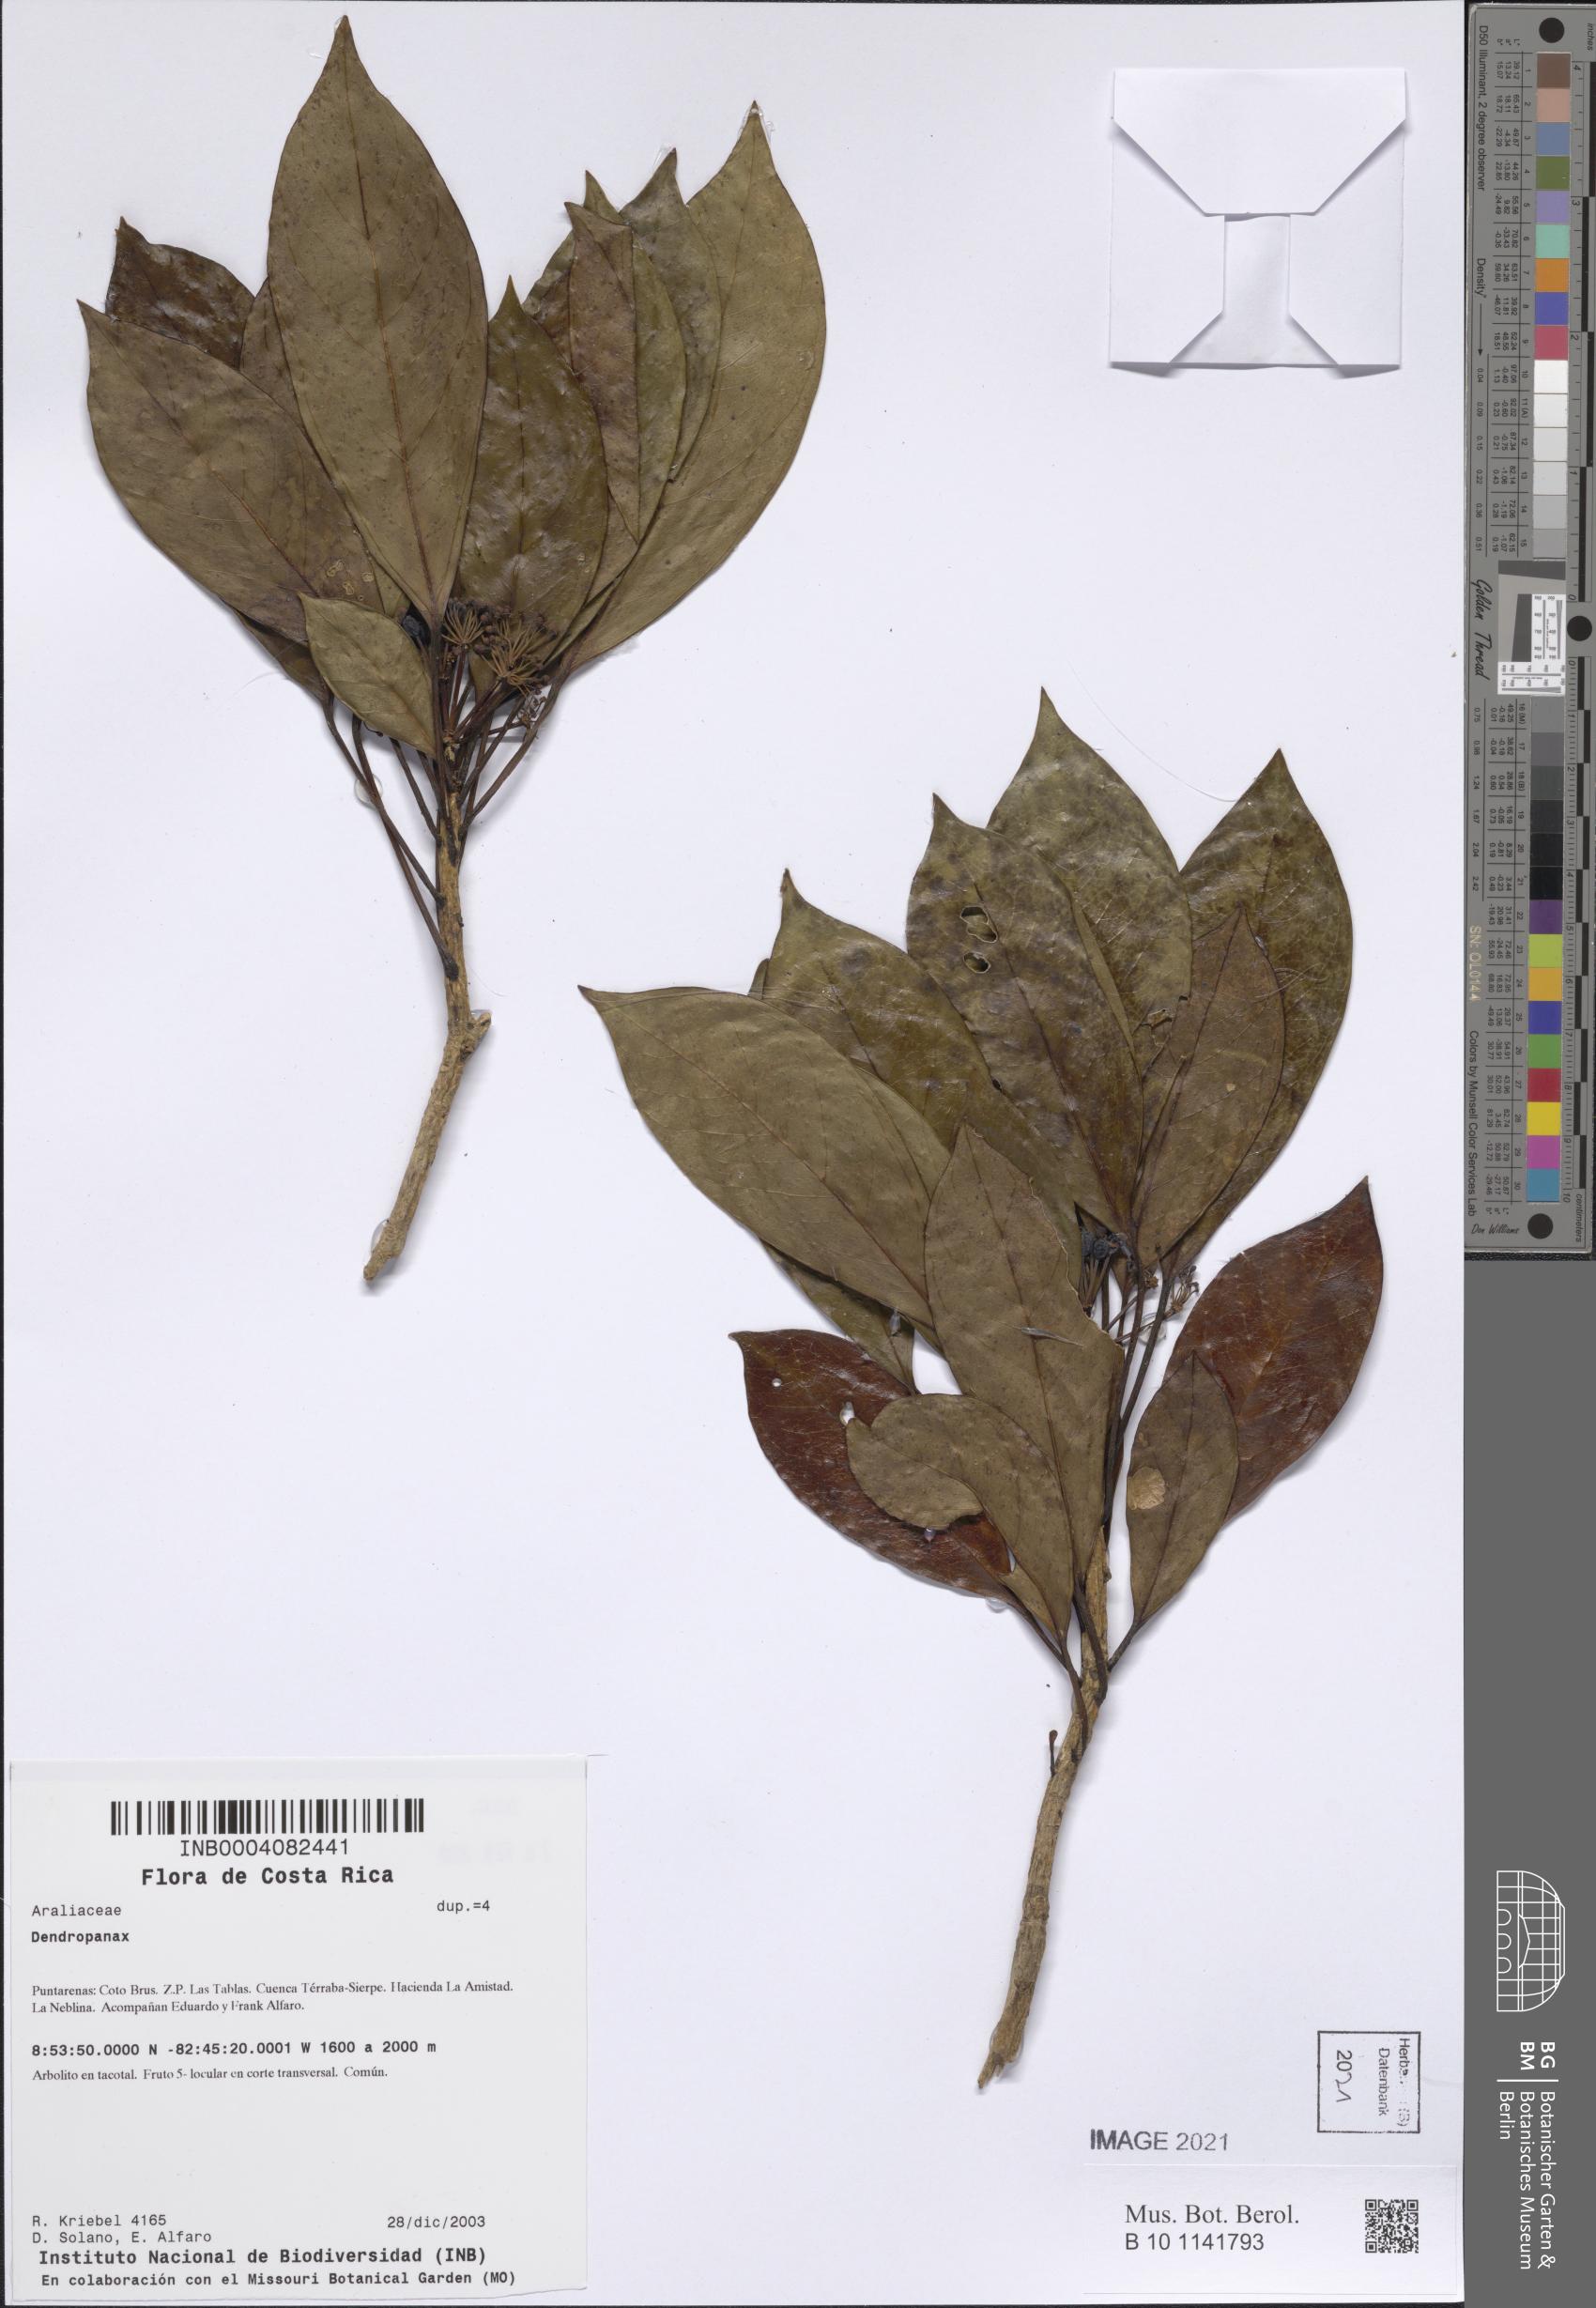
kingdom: Plantae
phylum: Tracheophyta
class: Magnoliopsida
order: Apiales
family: Araliaceae
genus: Dendropanax
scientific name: Dendropanax
